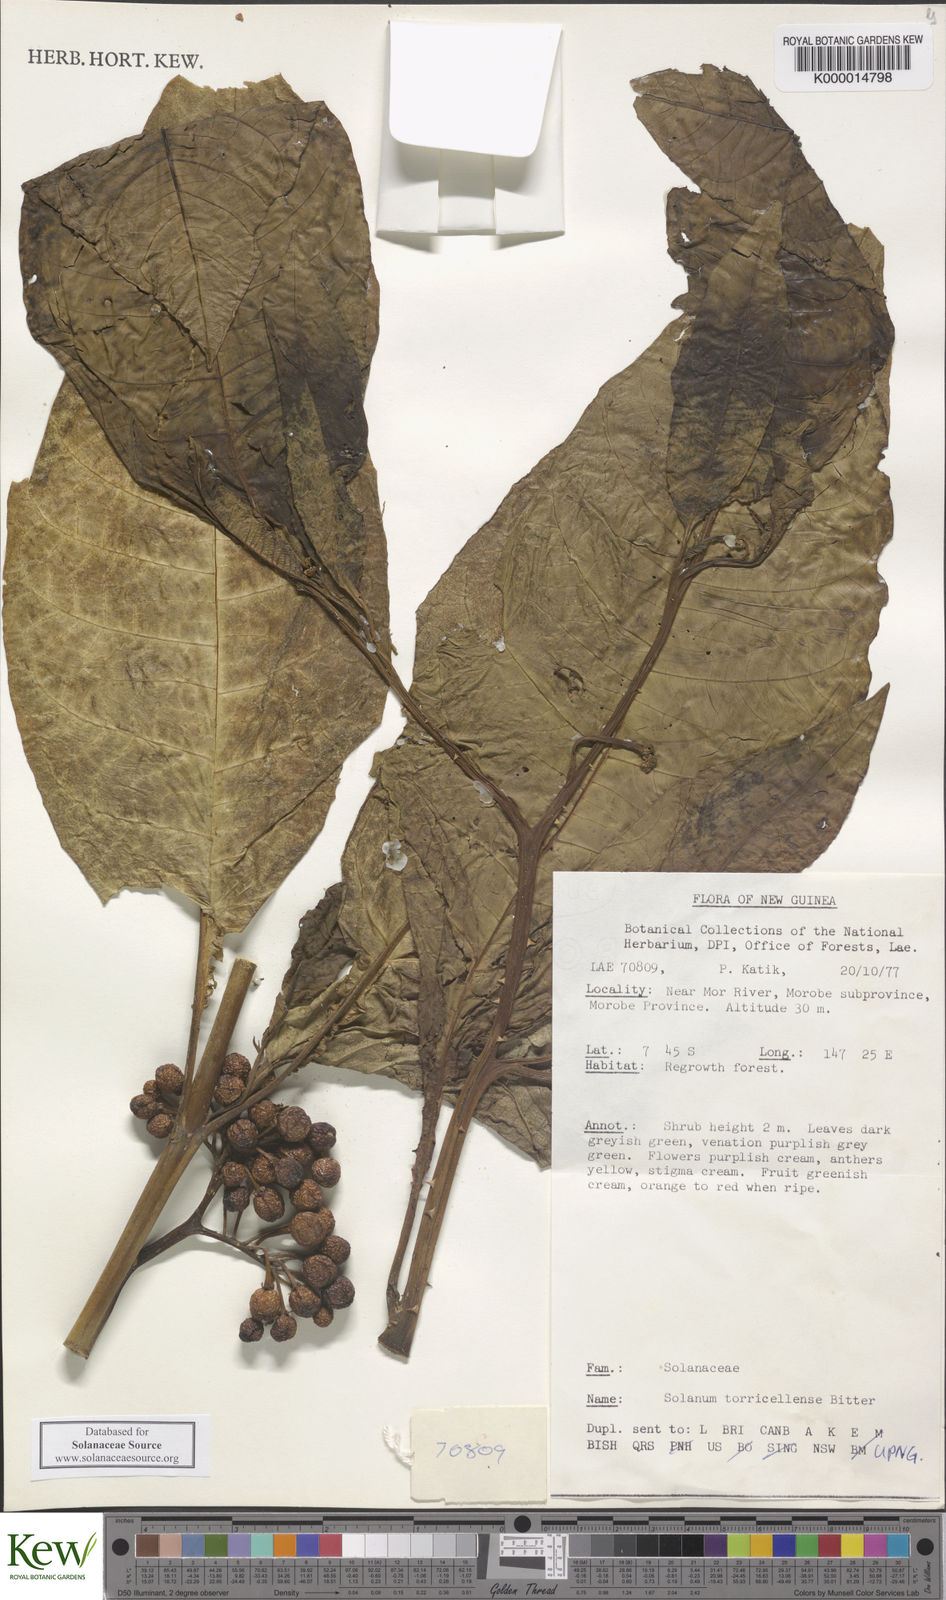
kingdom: Plantae
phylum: Tracheophyta
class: Magnoliopsida
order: Solanales
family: Solanaceae
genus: Solanum
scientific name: Solanum dunalianum
